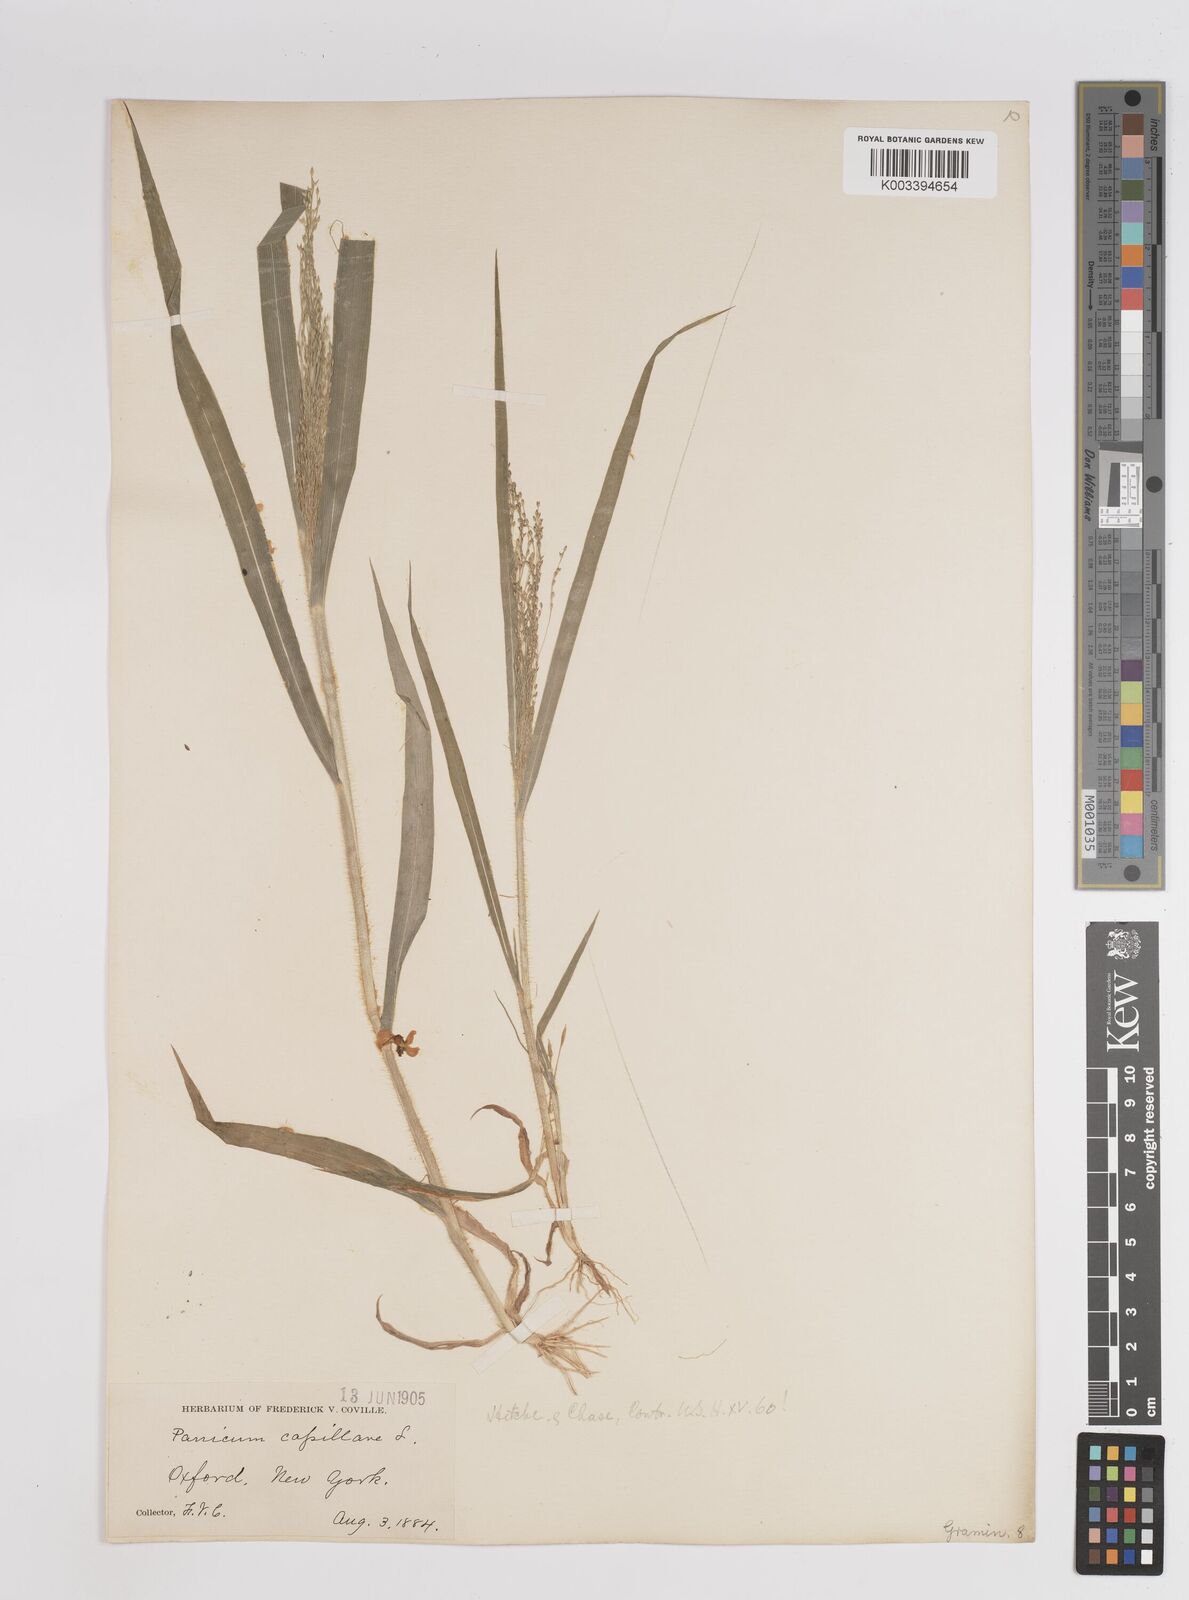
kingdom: Plantae
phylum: Tracheophyta
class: Liliopsida
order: Poales
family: Poaceae
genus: Panicum
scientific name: Panicum capillare
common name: Witch-grass
